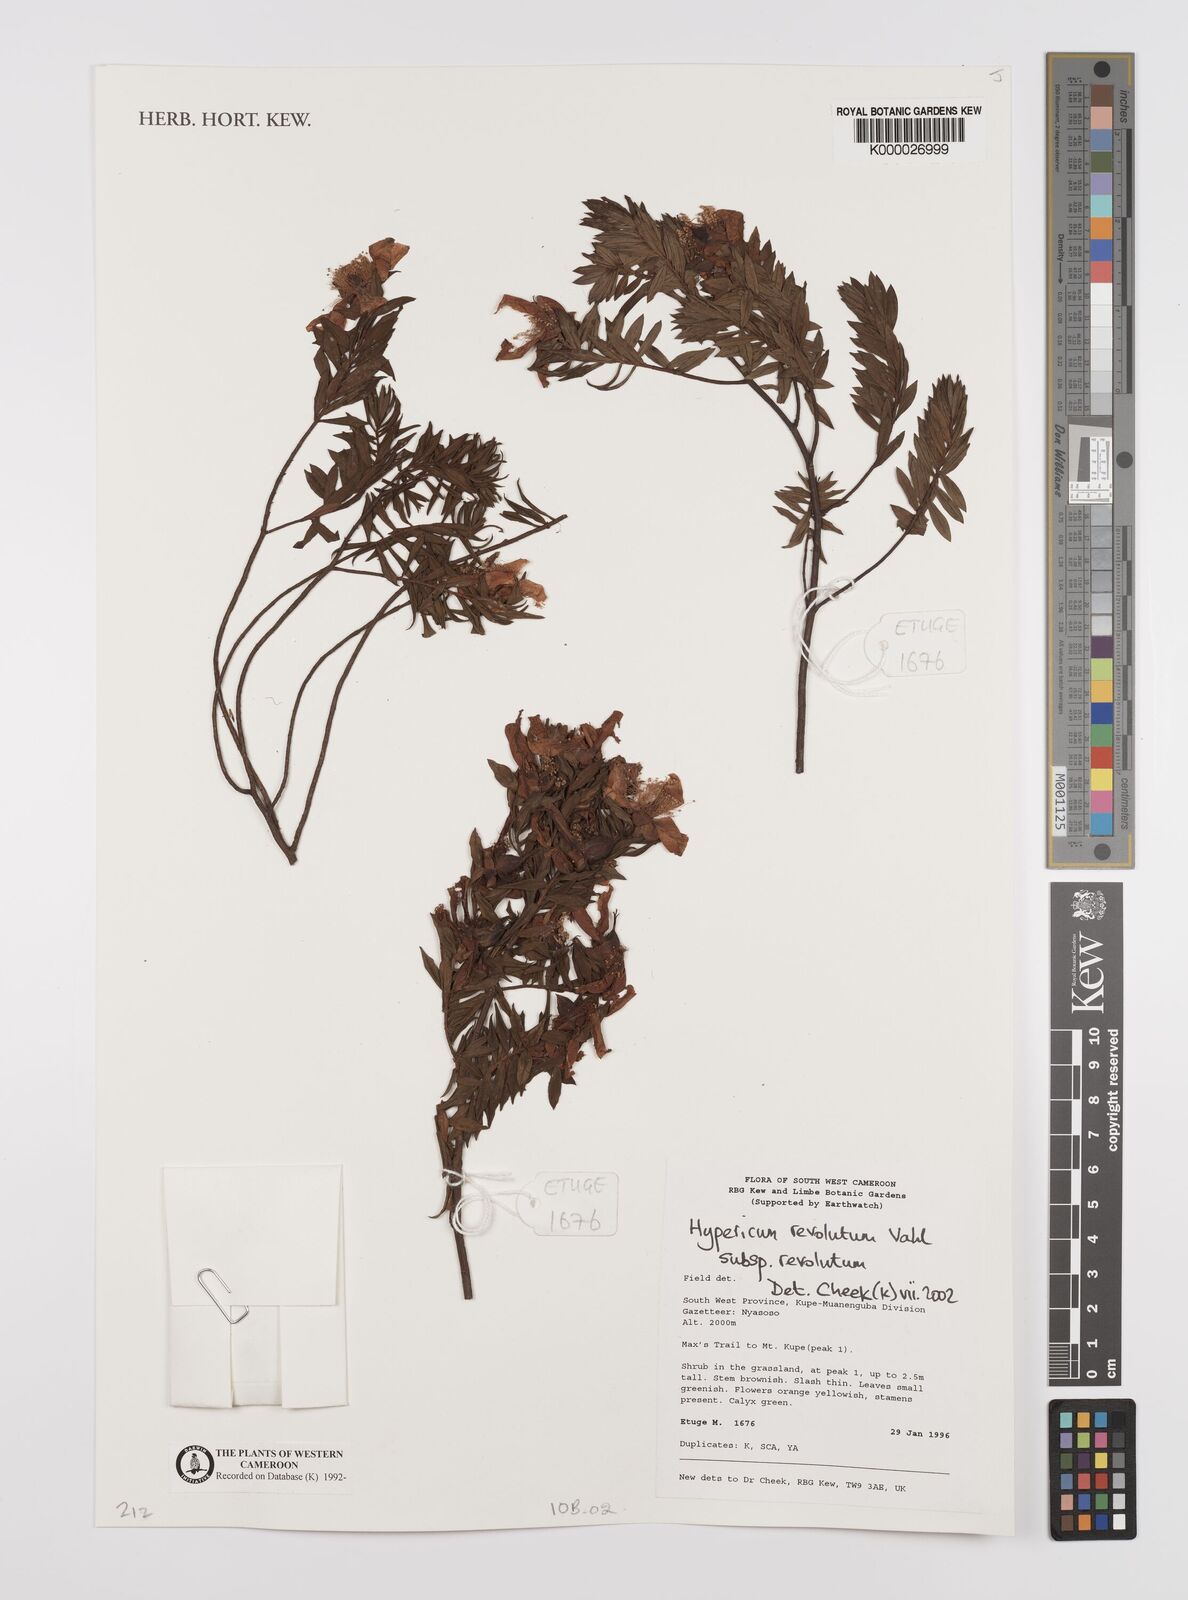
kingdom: Plantae
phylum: Tracheophyta
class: Magnoliopsida
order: Malpighiales
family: Hypericaceae
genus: Hypericum
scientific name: Hypericum revolutum
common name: Curry bush
